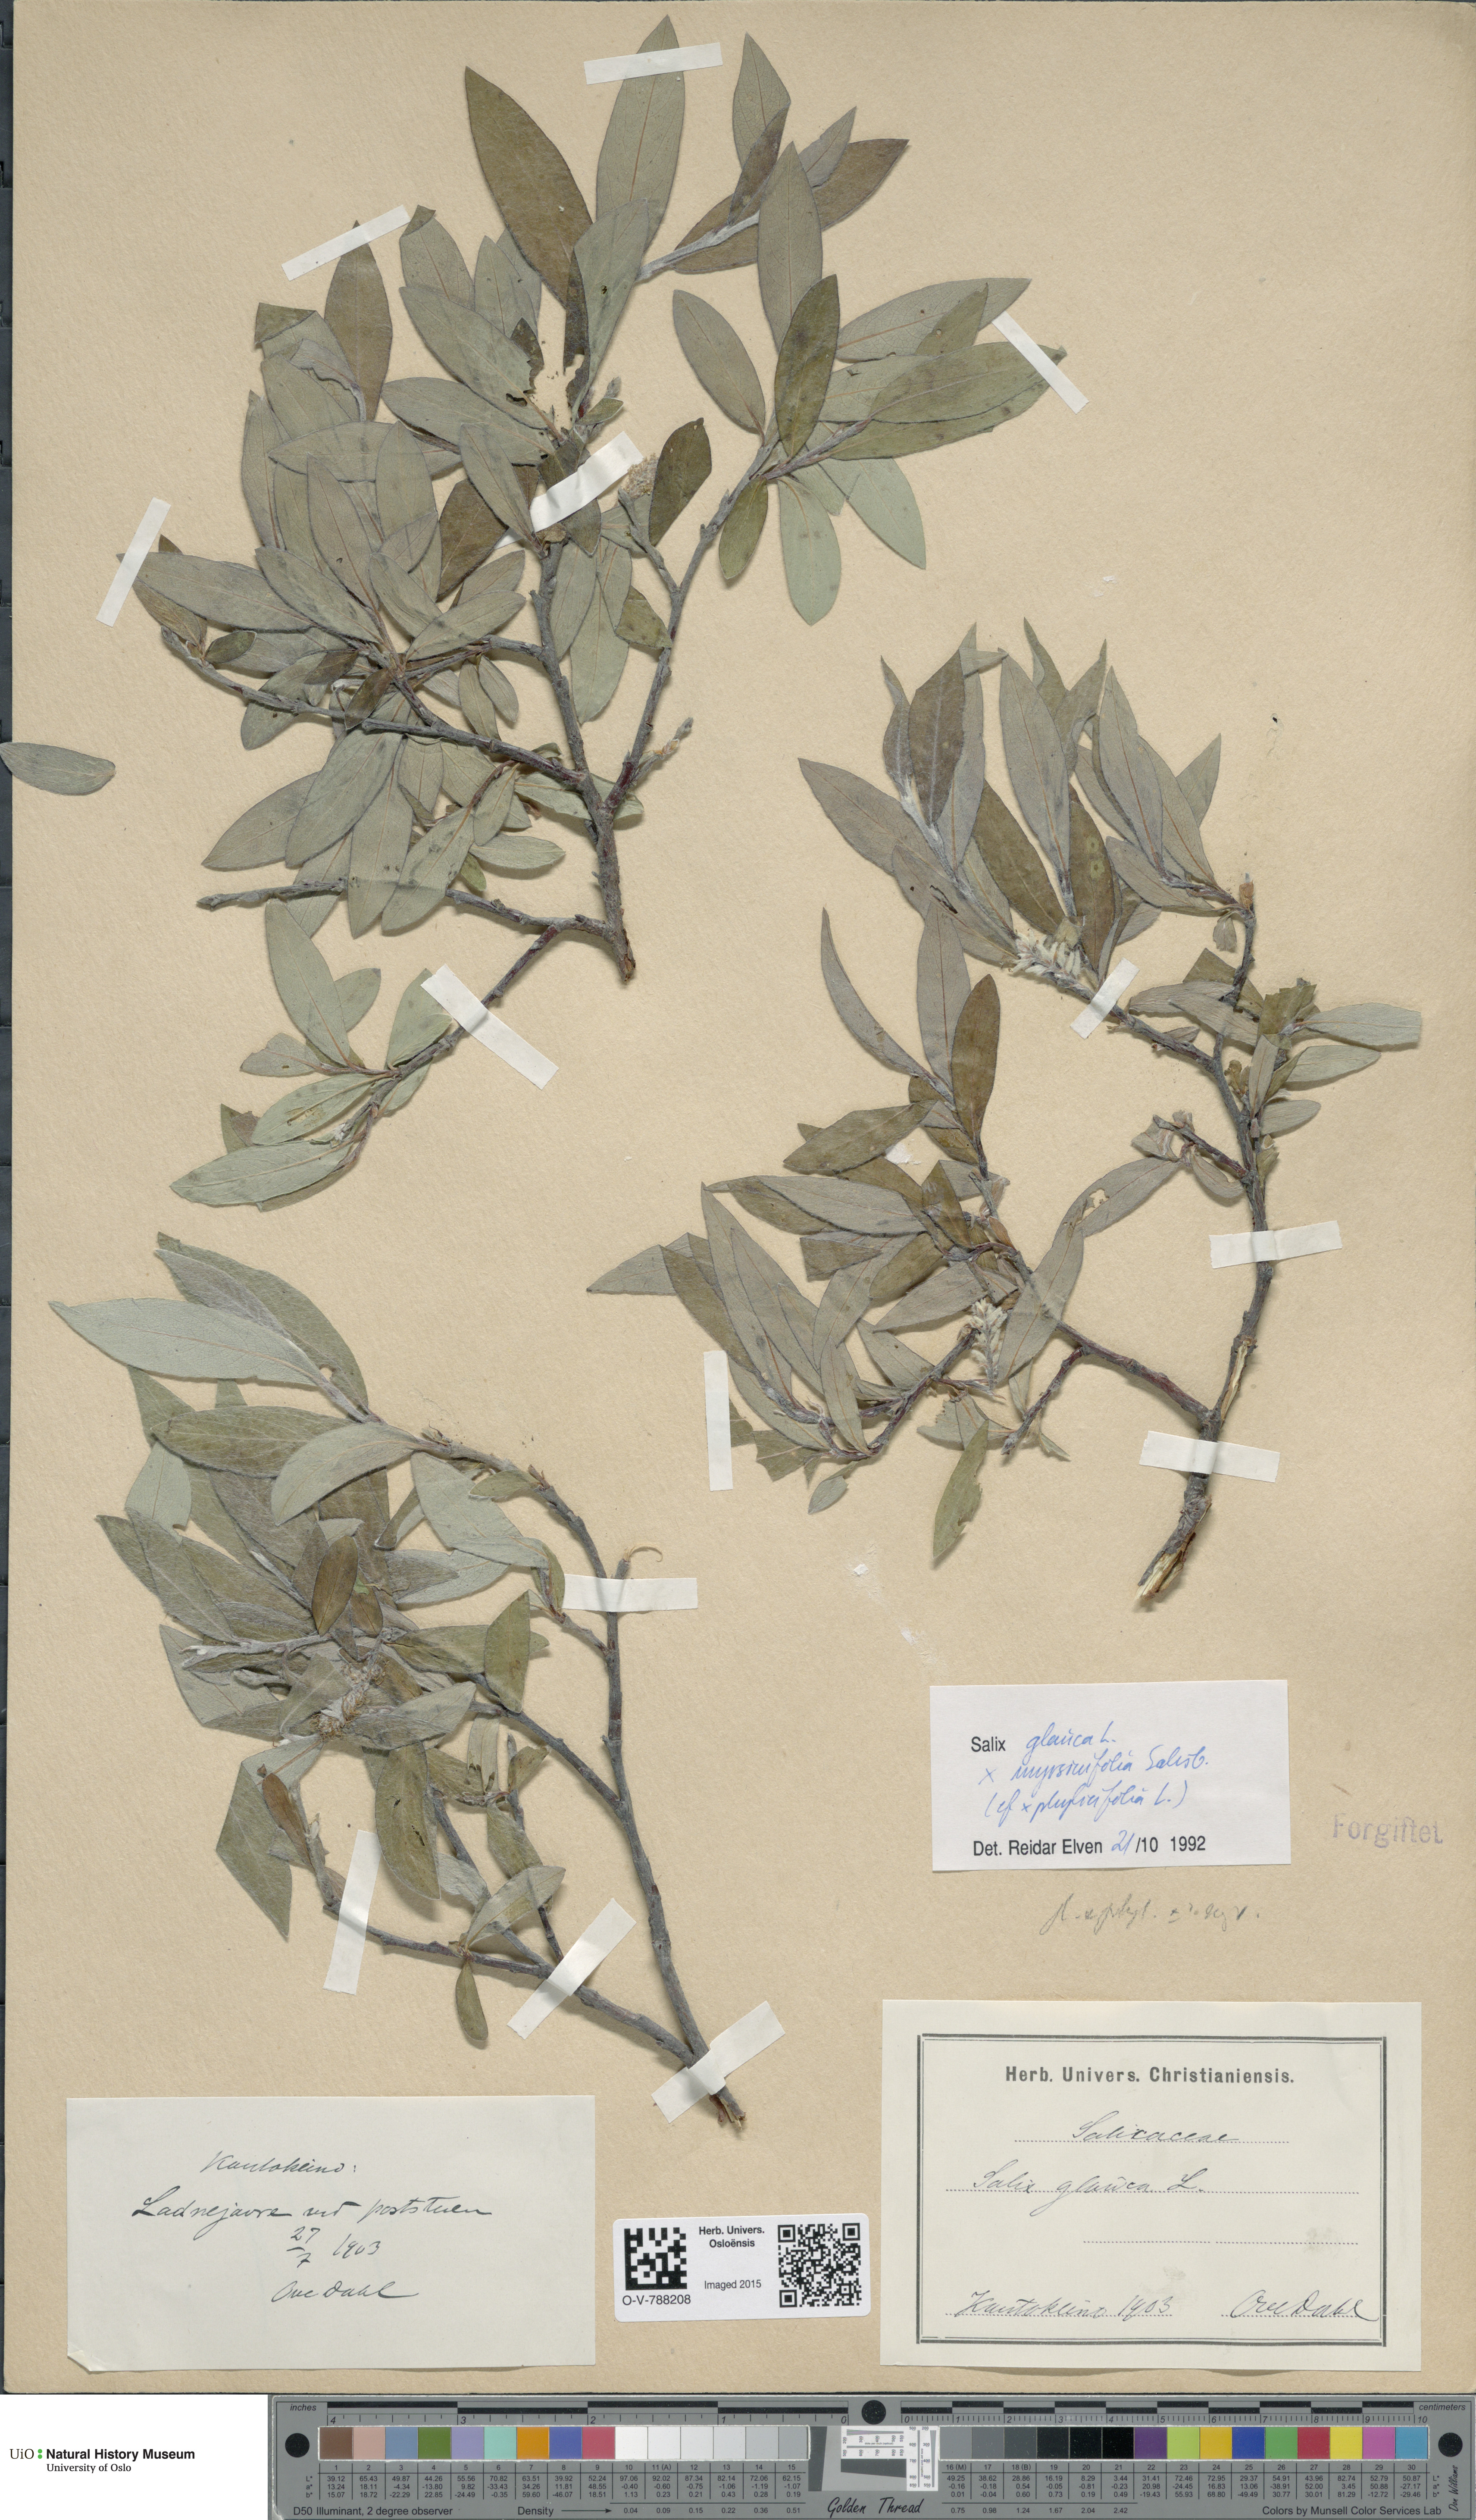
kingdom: Plantae
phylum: Tracheophyta
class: Magnoliopsida
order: Malpighiales
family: Salicaceae
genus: Salix
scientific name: Salix
